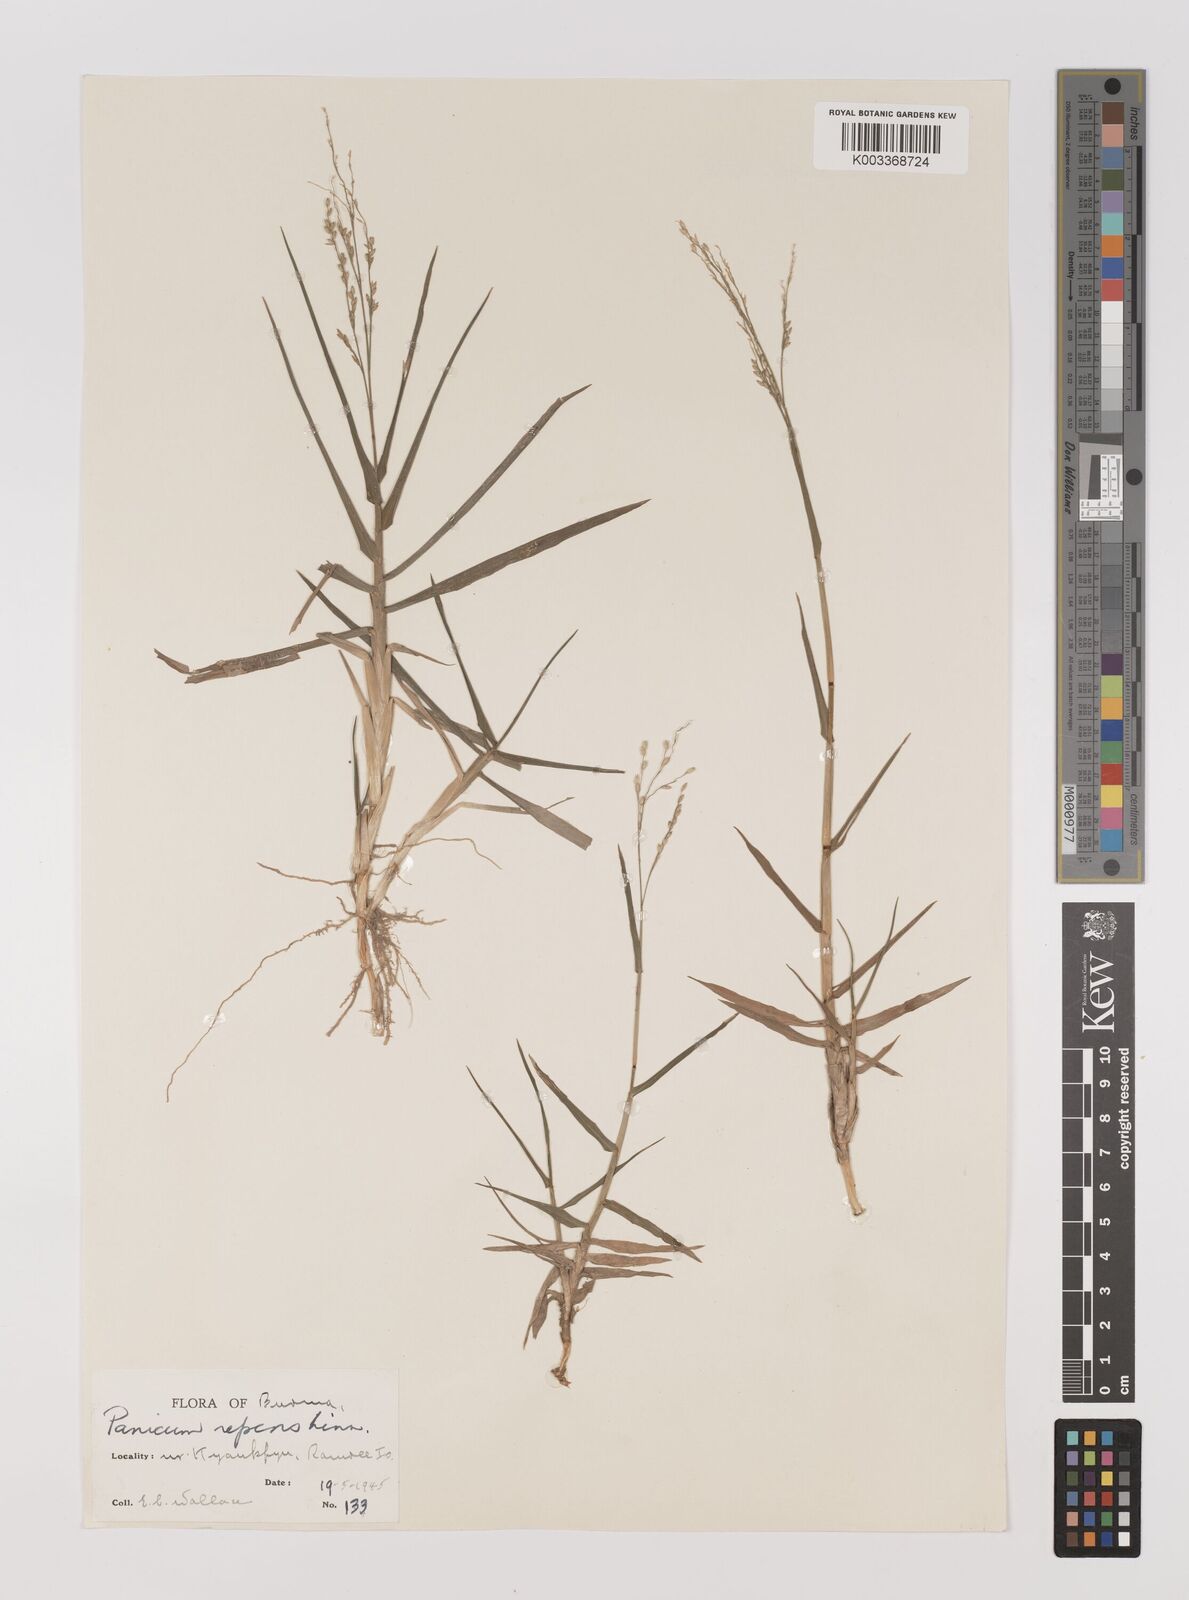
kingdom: Plantae
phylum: Tracheophyta
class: Liliopsida
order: Poales
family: Poaceae
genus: Panicum
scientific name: Panicum repens
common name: Torpedo grass
